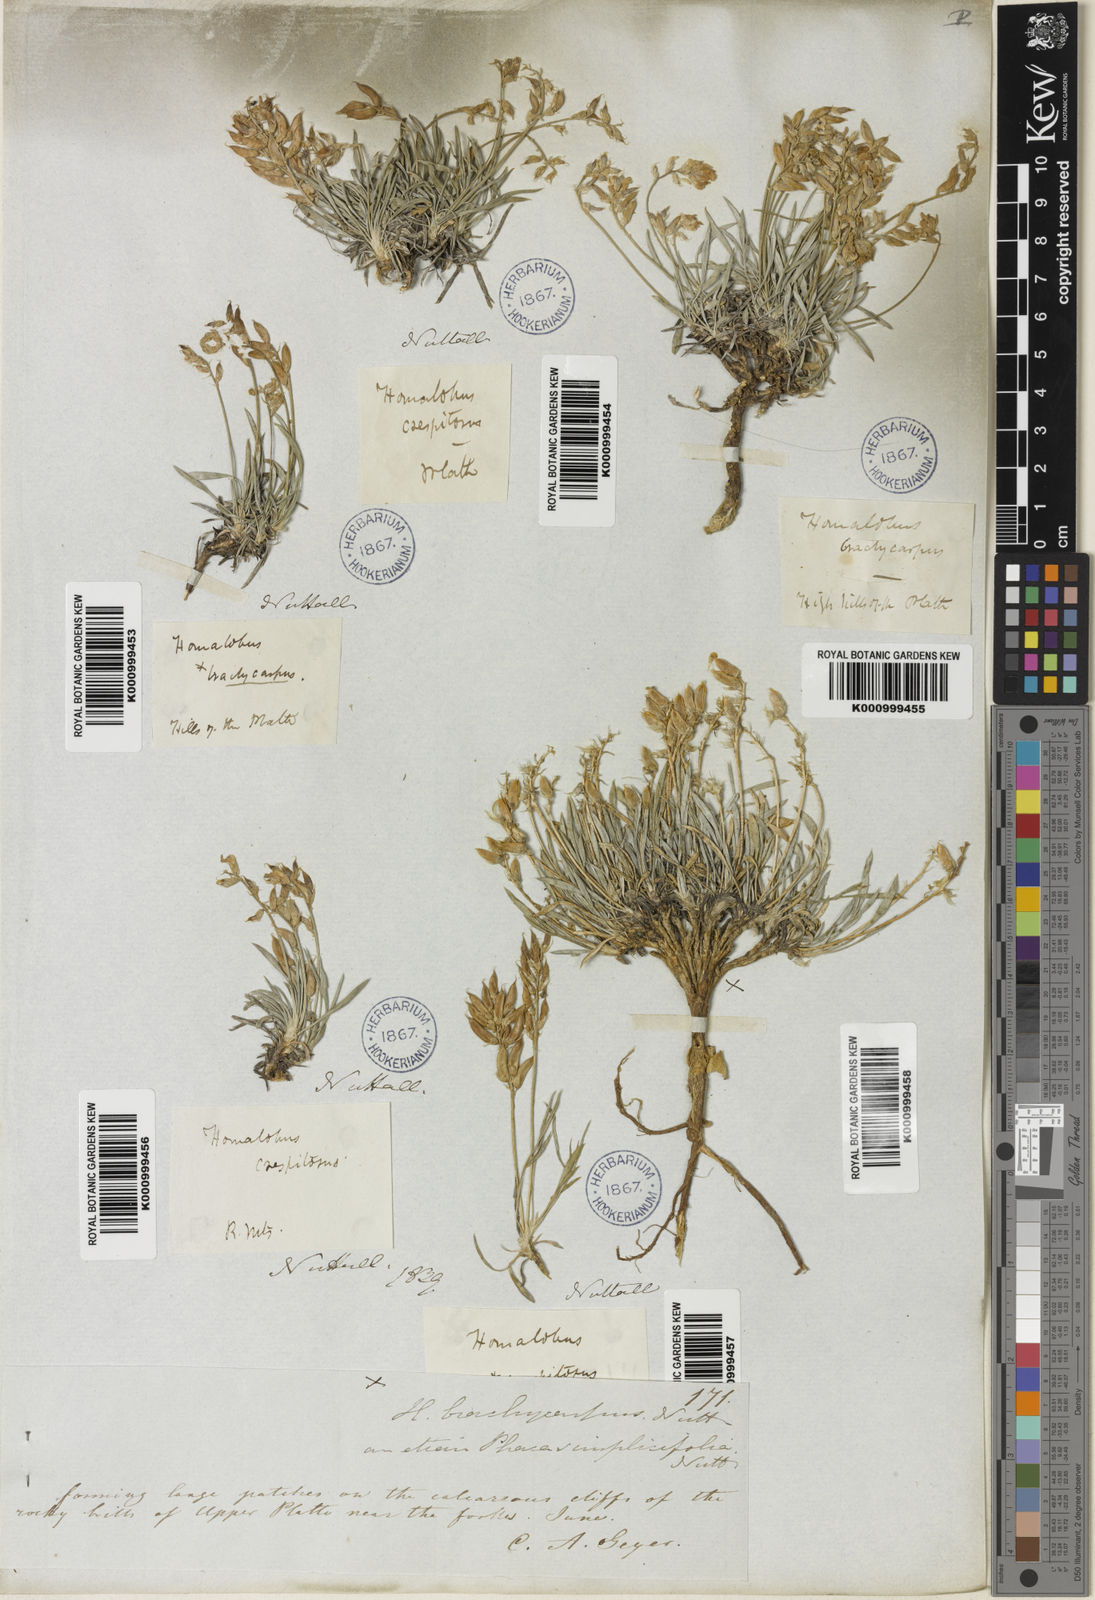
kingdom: Plantae
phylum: Tracheophyta
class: Magnoliopsida
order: Fabales
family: Fabaceae
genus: Oxytropis
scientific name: Oxytropis caespitosa
